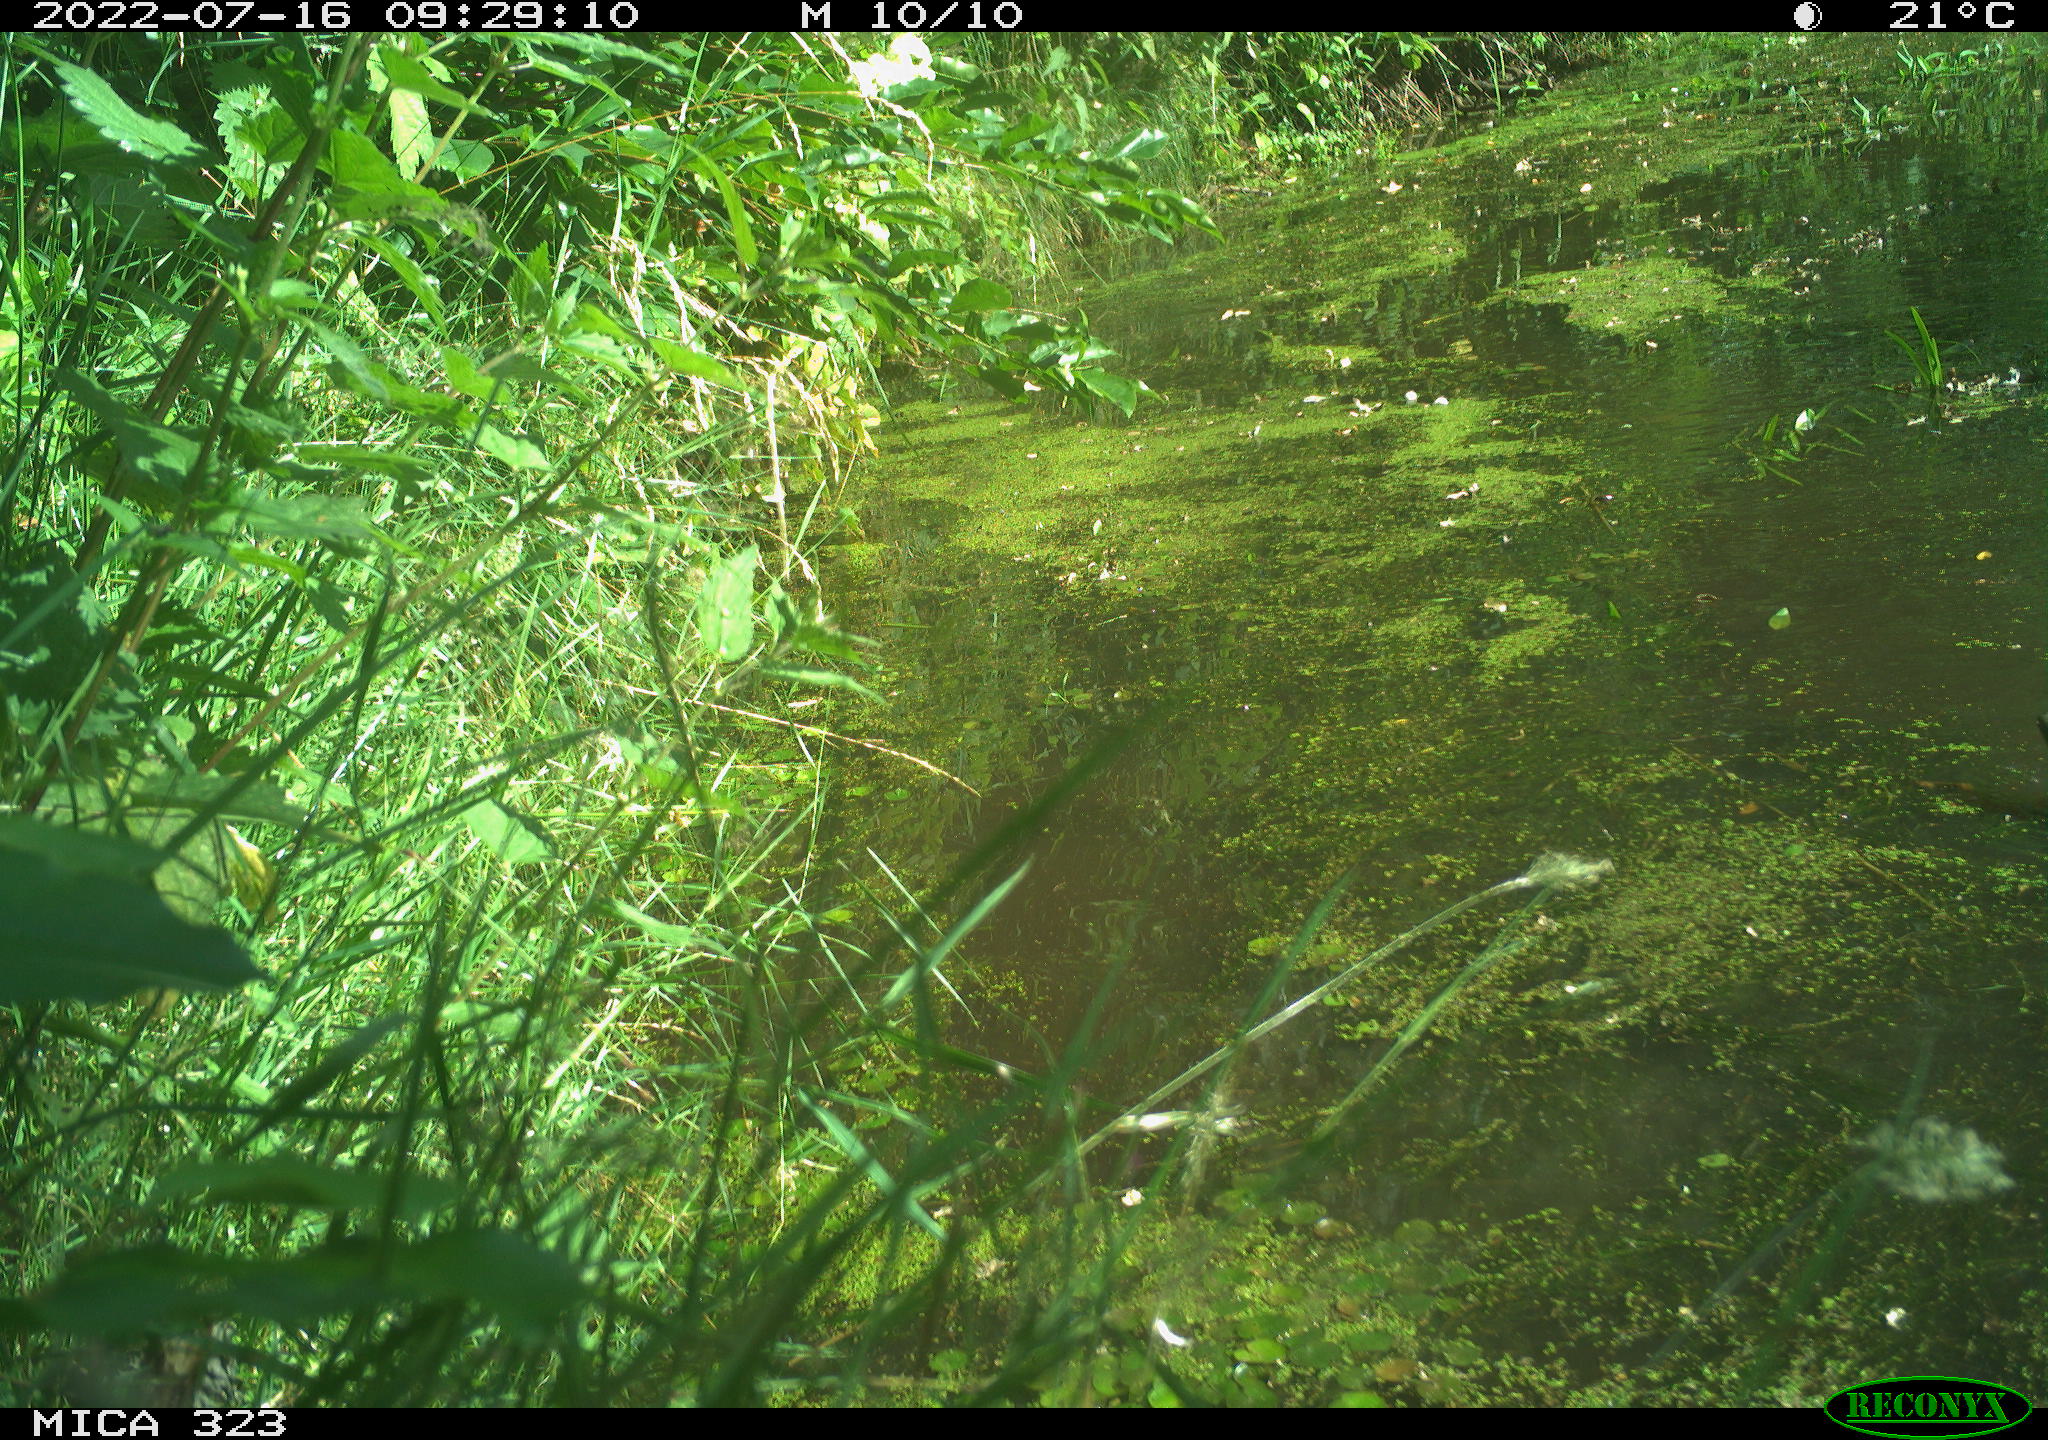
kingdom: Animalia
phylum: Chordata
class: Aves
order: Anseriformes
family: Anatidae
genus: Anas
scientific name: Anas platyrhynchos
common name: Mallard
